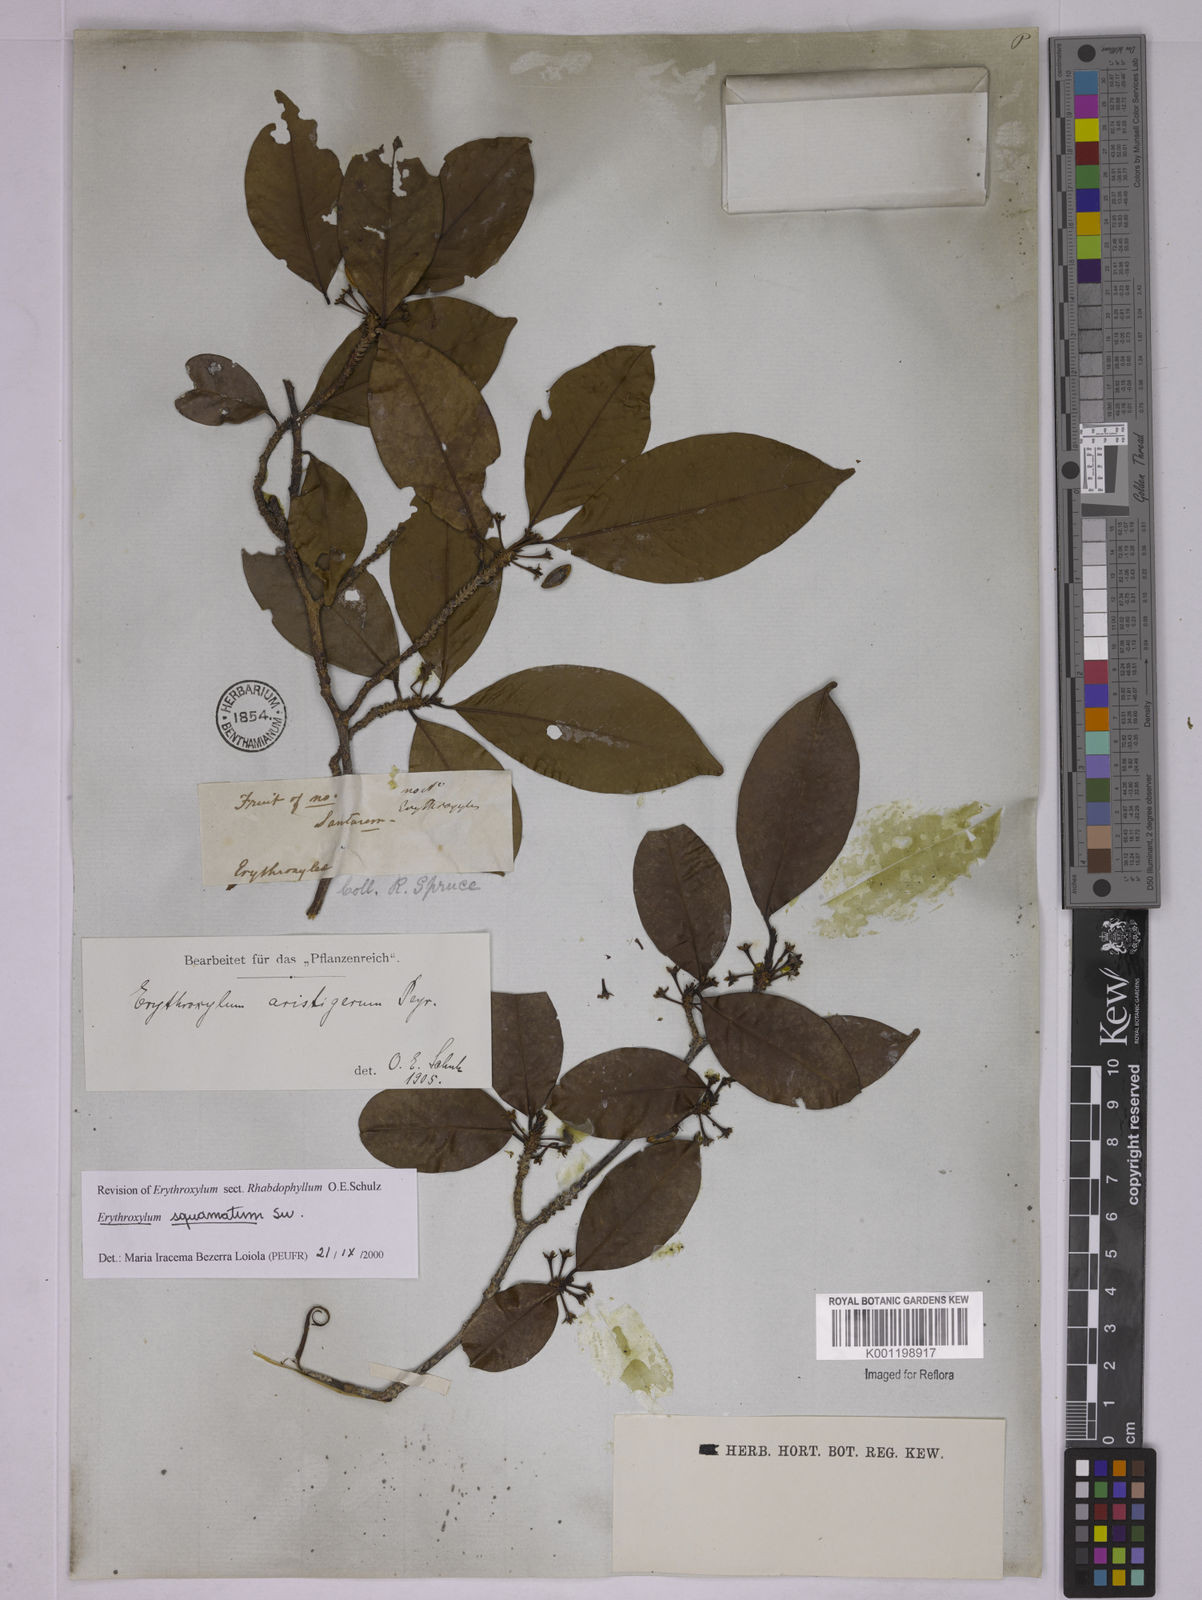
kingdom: Plantae
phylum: Tracheophyta
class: Magnoliopsida
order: Malpighiales
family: Erythroxylaceae
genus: Erythroxylum
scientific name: Erythroxylum squamatum
